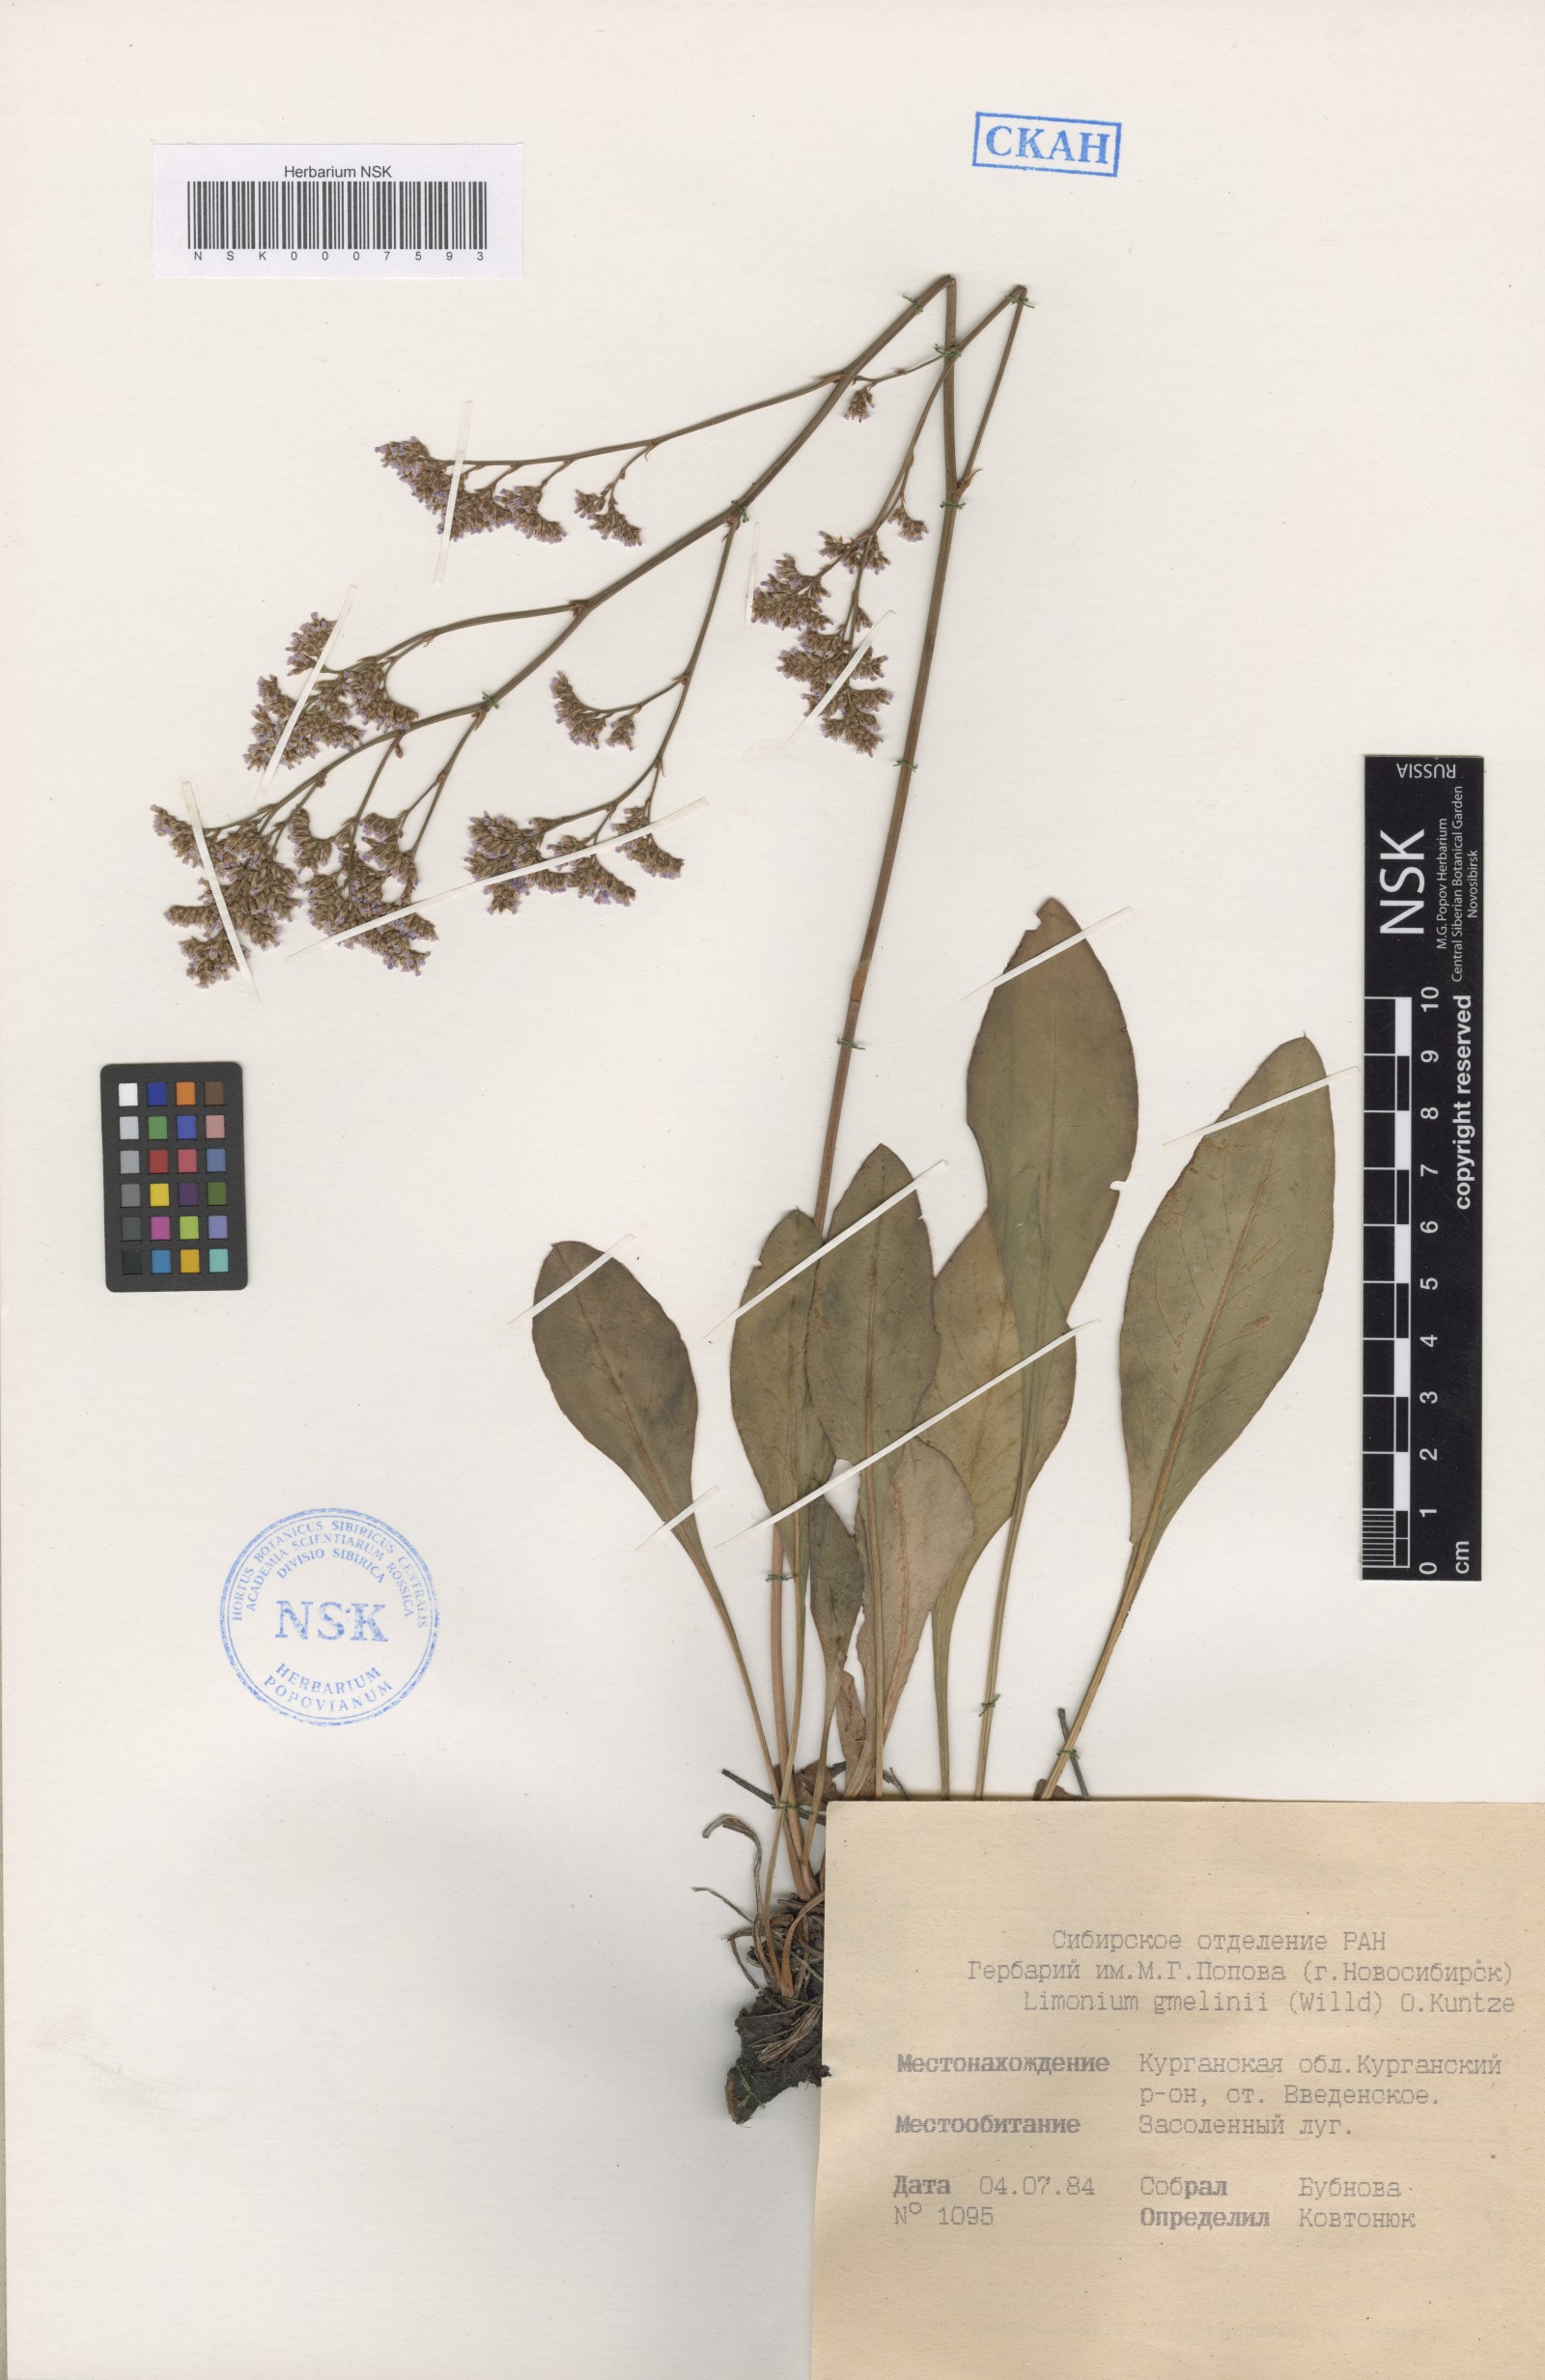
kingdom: Plantae
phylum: Tracheophyta
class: Magnoliopsida
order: Caryophyllales
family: Plumbaginaceae
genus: Limonium
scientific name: Limonium gmelini
